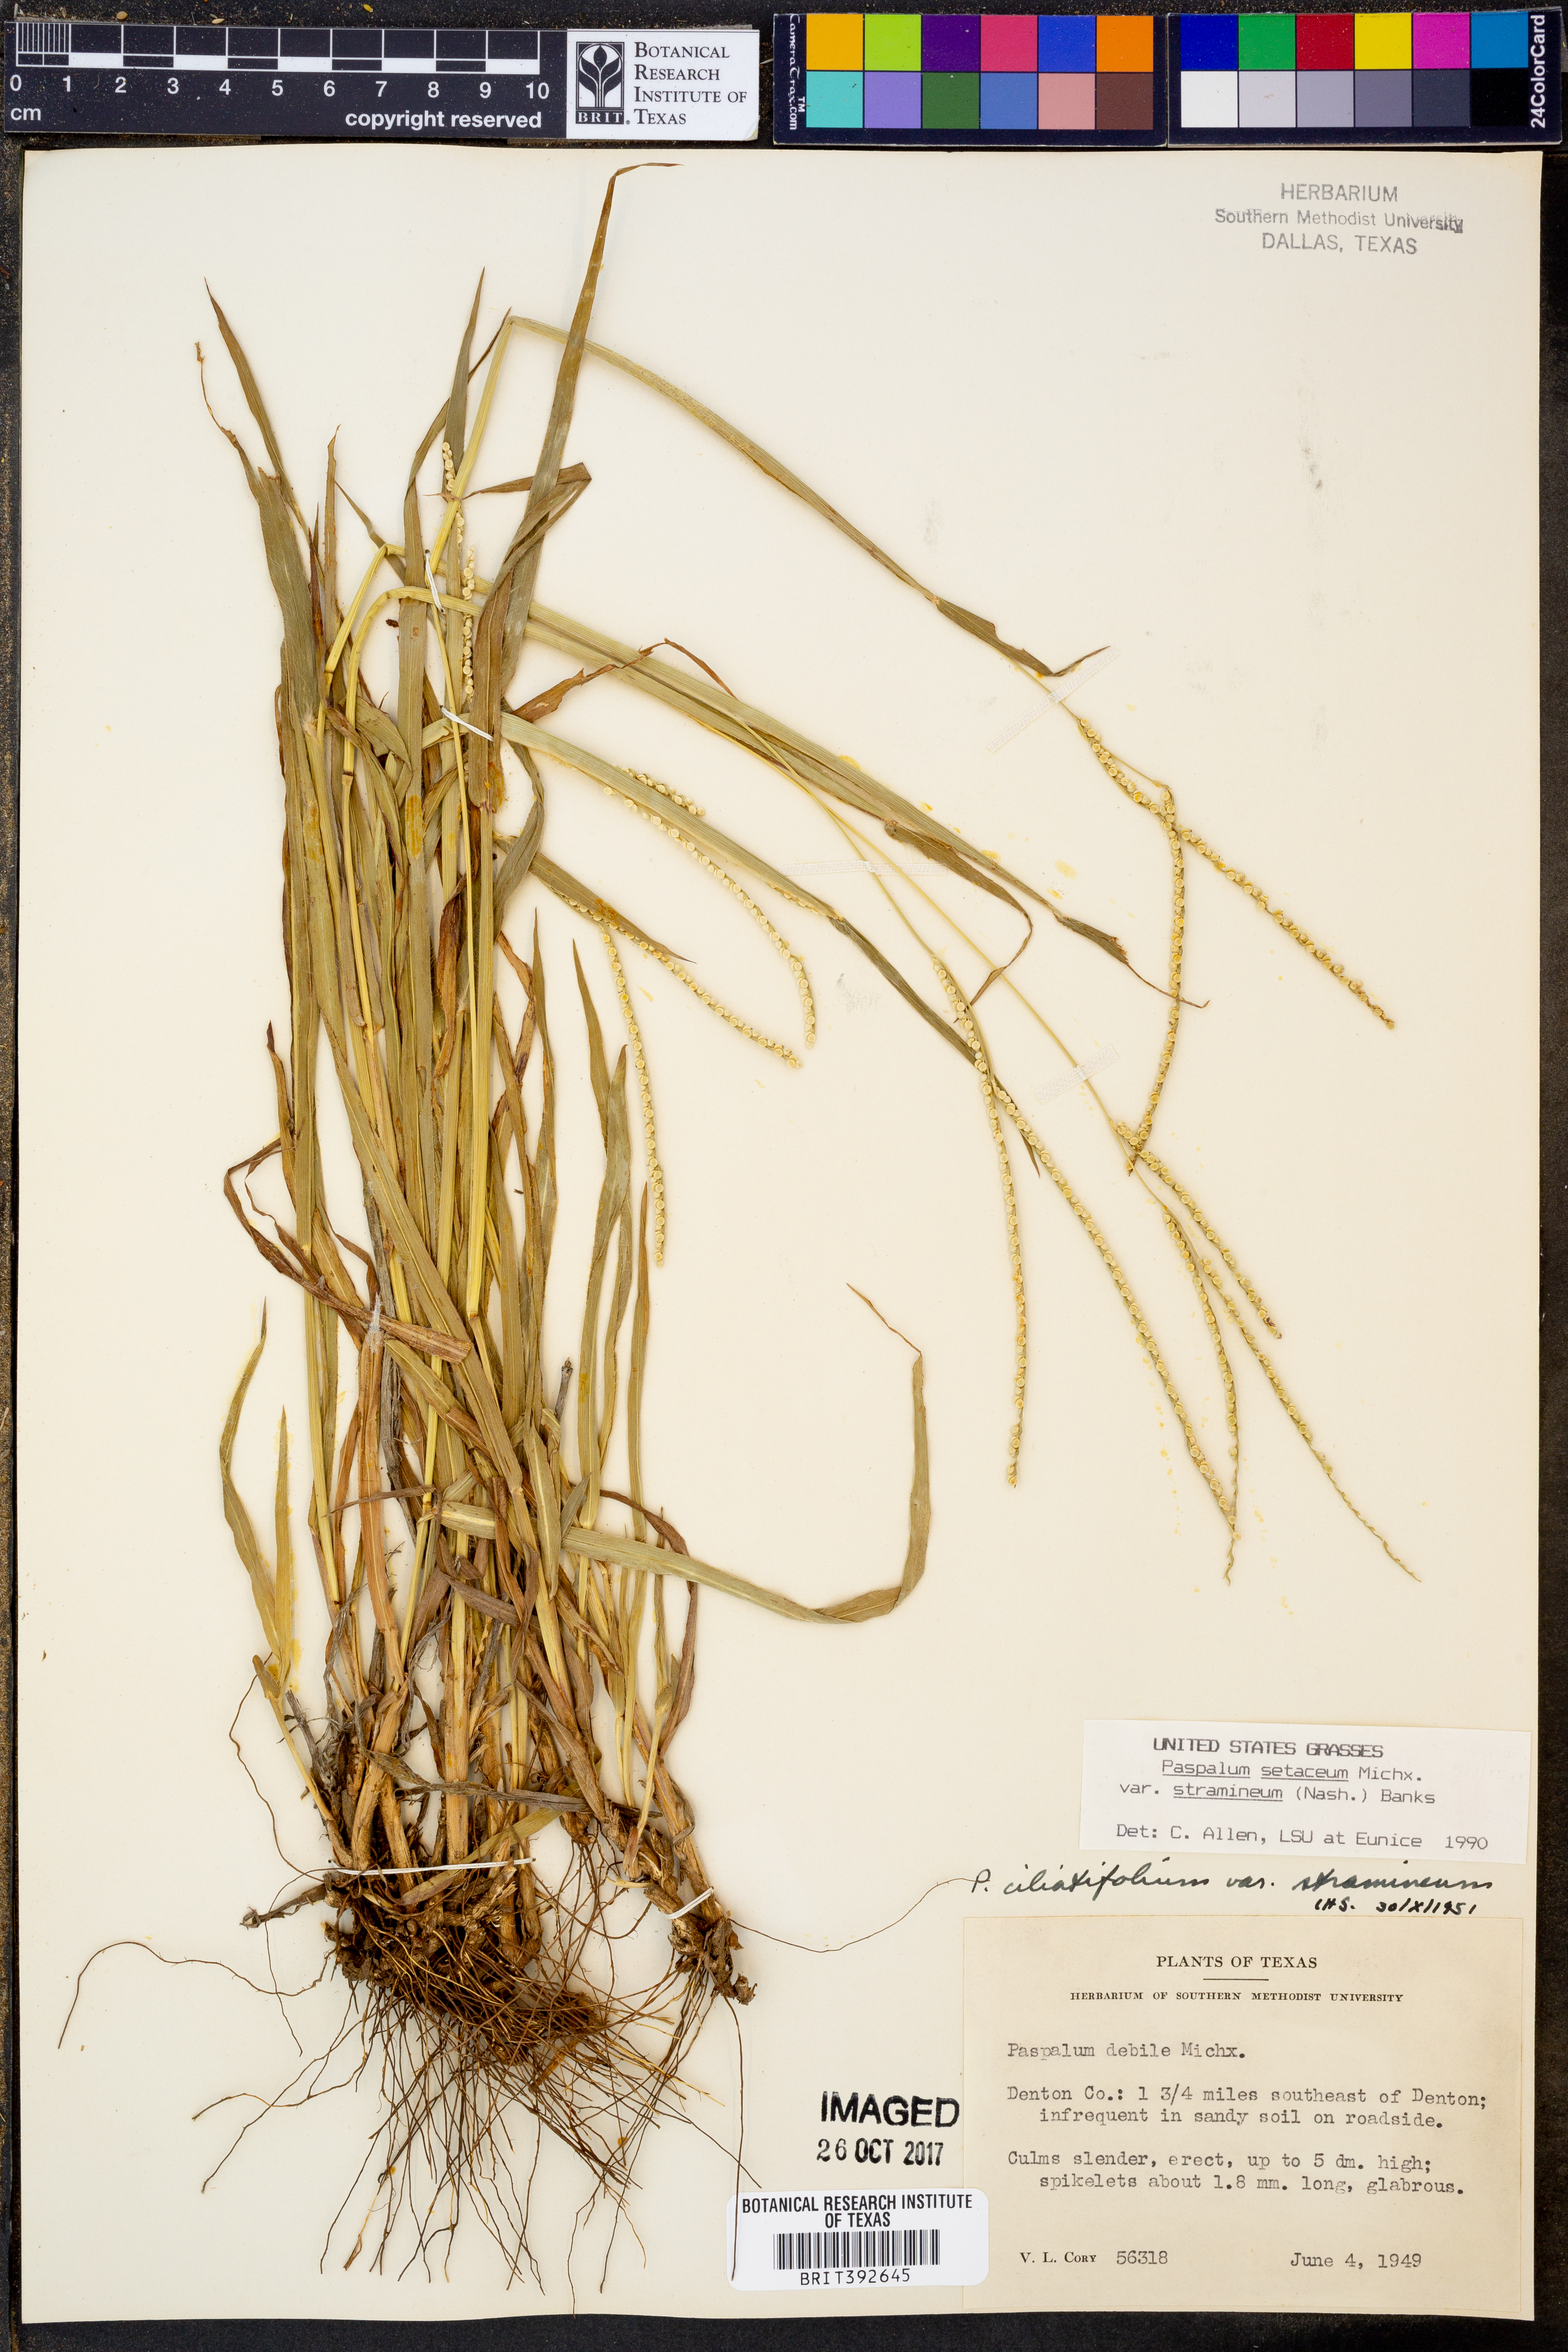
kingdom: Plantae
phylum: Tracheophyta
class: Liliopsida
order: Poales
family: Poaceae
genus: Paspalum
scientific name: Paspalum setaceum
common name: Slender paspalum
